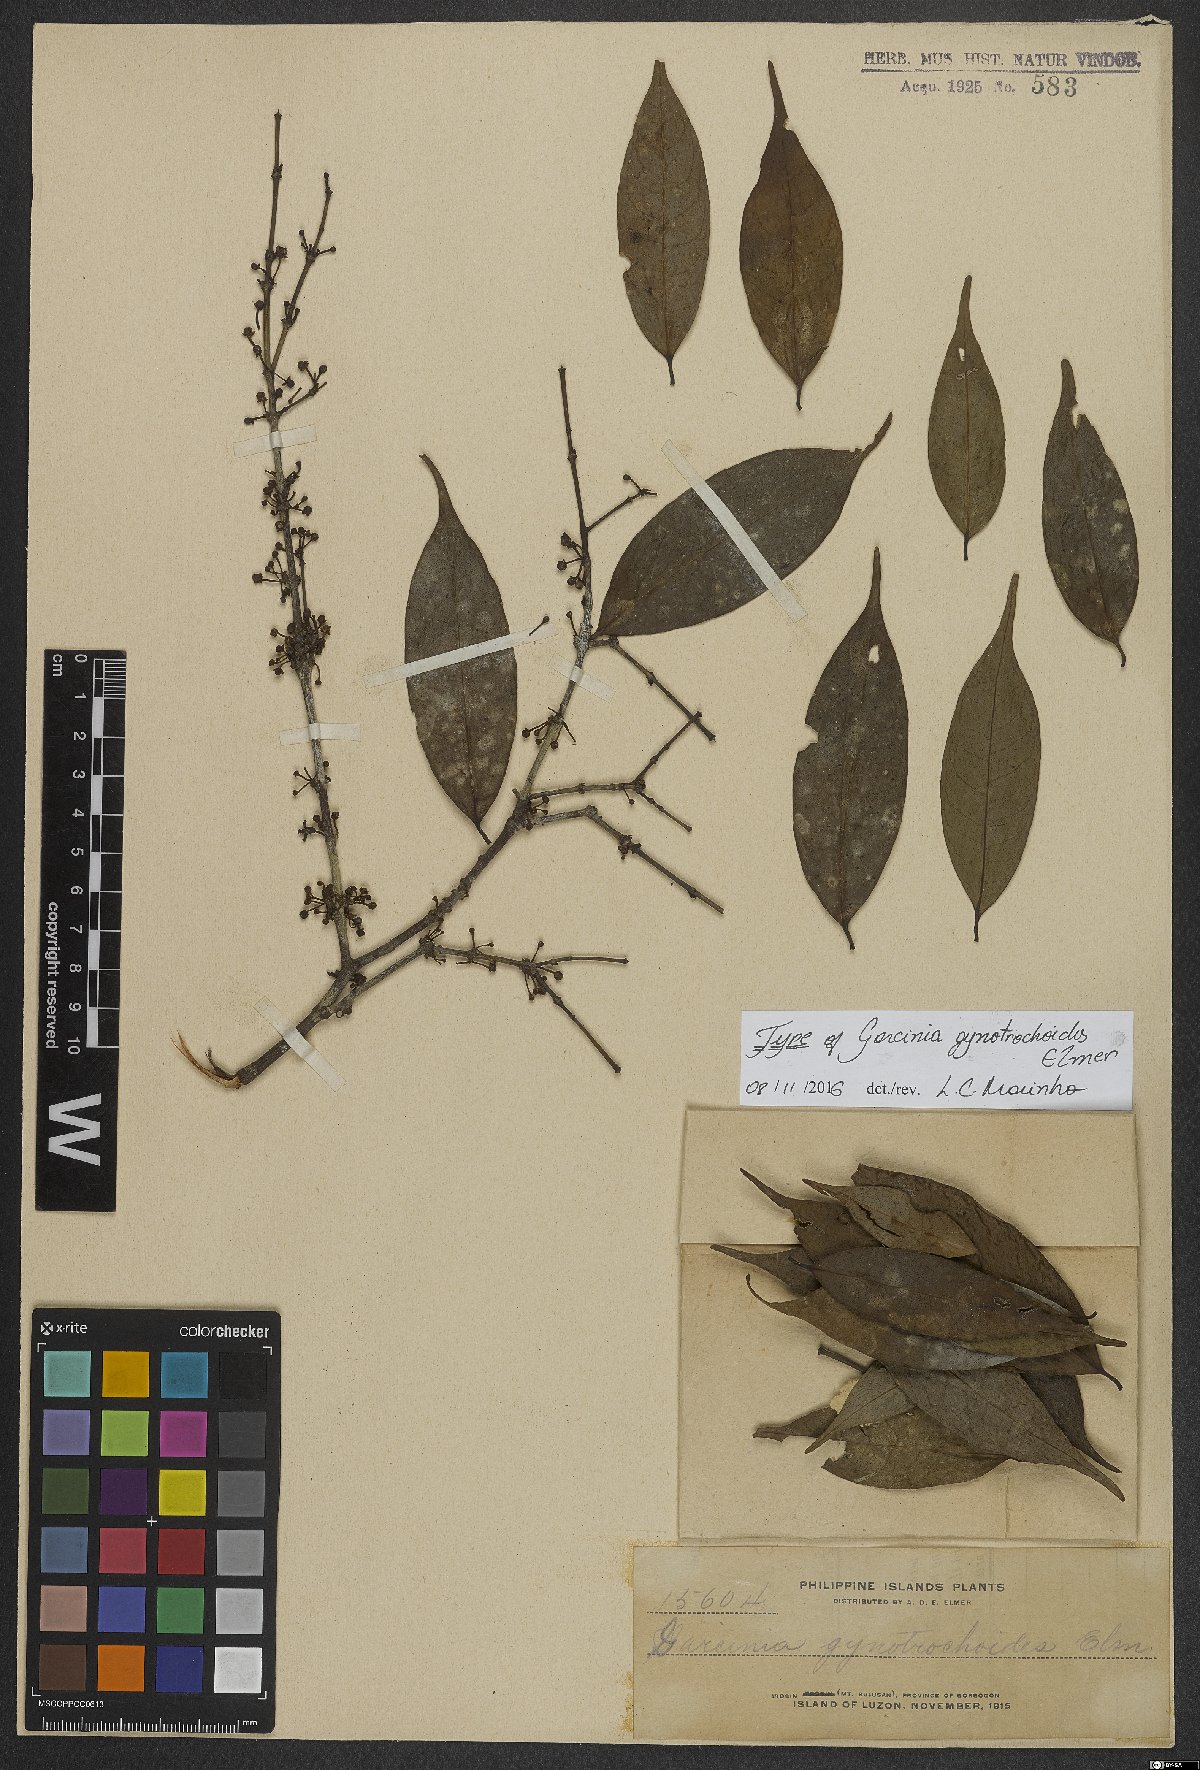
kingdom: Plantae
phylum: Tracheophyta
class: Magnoliopsida
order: Malpighiales
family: Clusiaceae
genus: Garcinia
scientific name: Garcinia gynotrochoides
